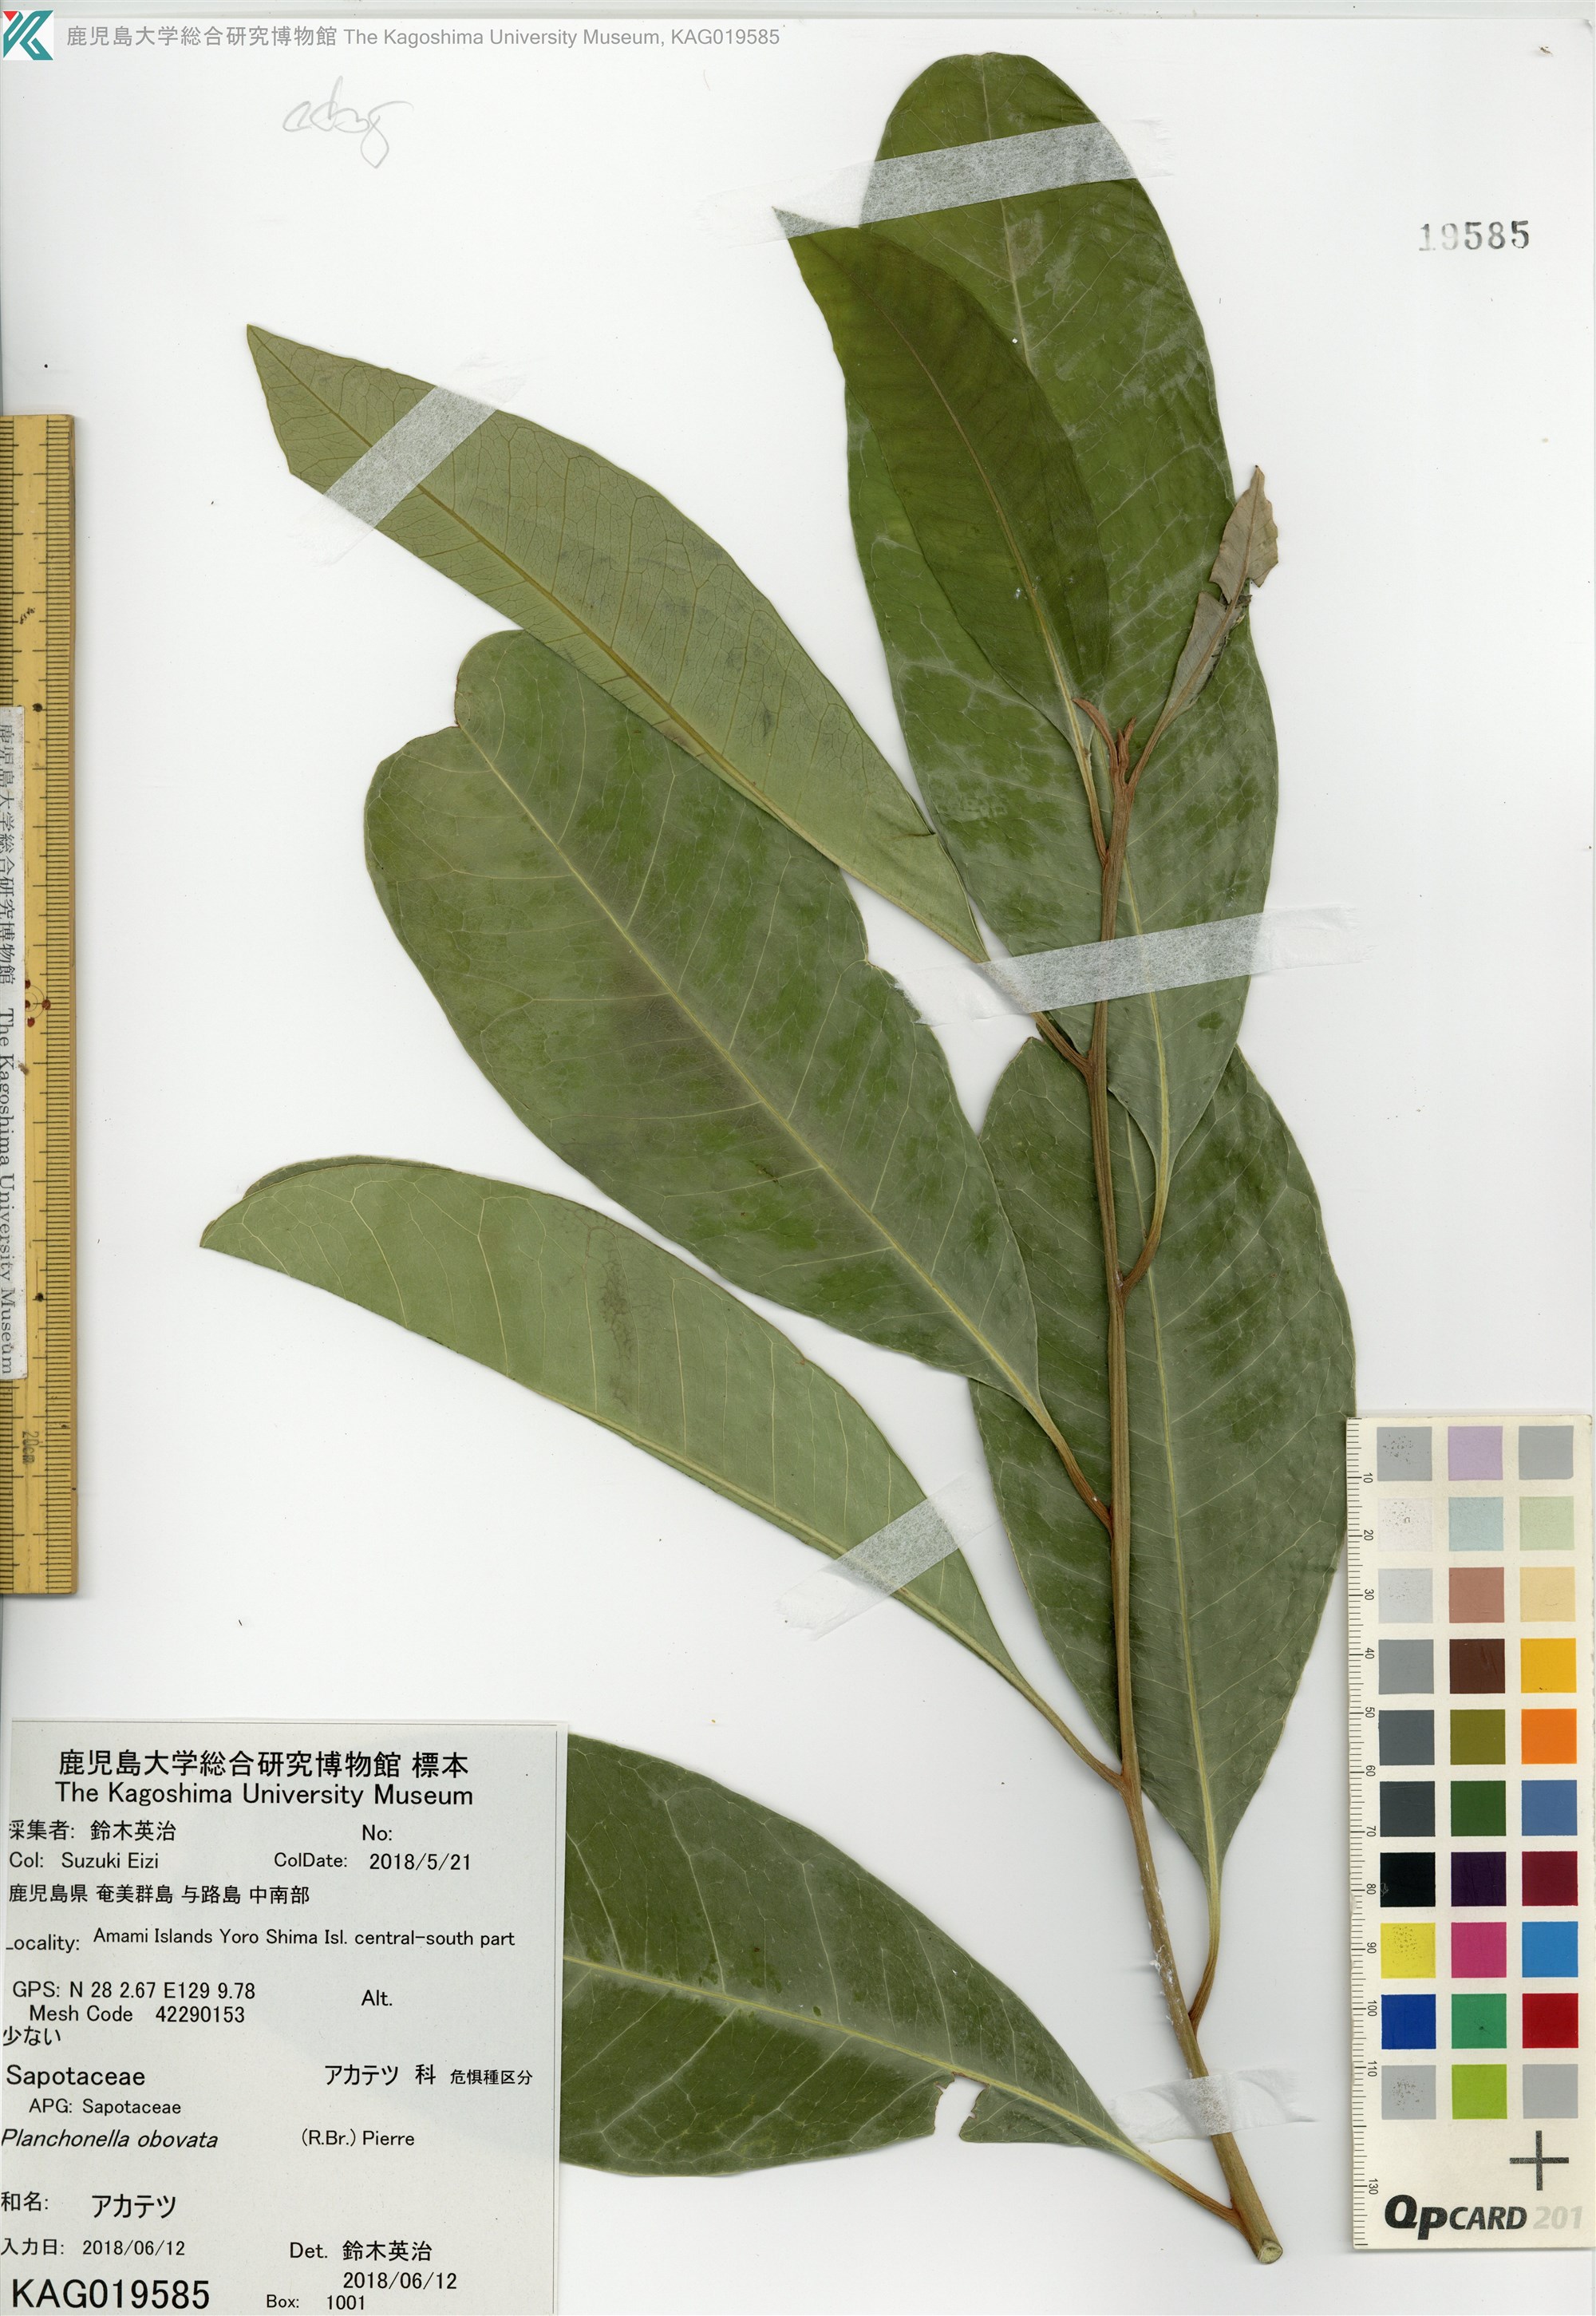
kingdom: Plantae
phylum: Tracheophyta
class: Magnoliopsida
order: Ericales
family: Sapotaceae
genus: Planchonella
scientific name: Planchonella obovata
